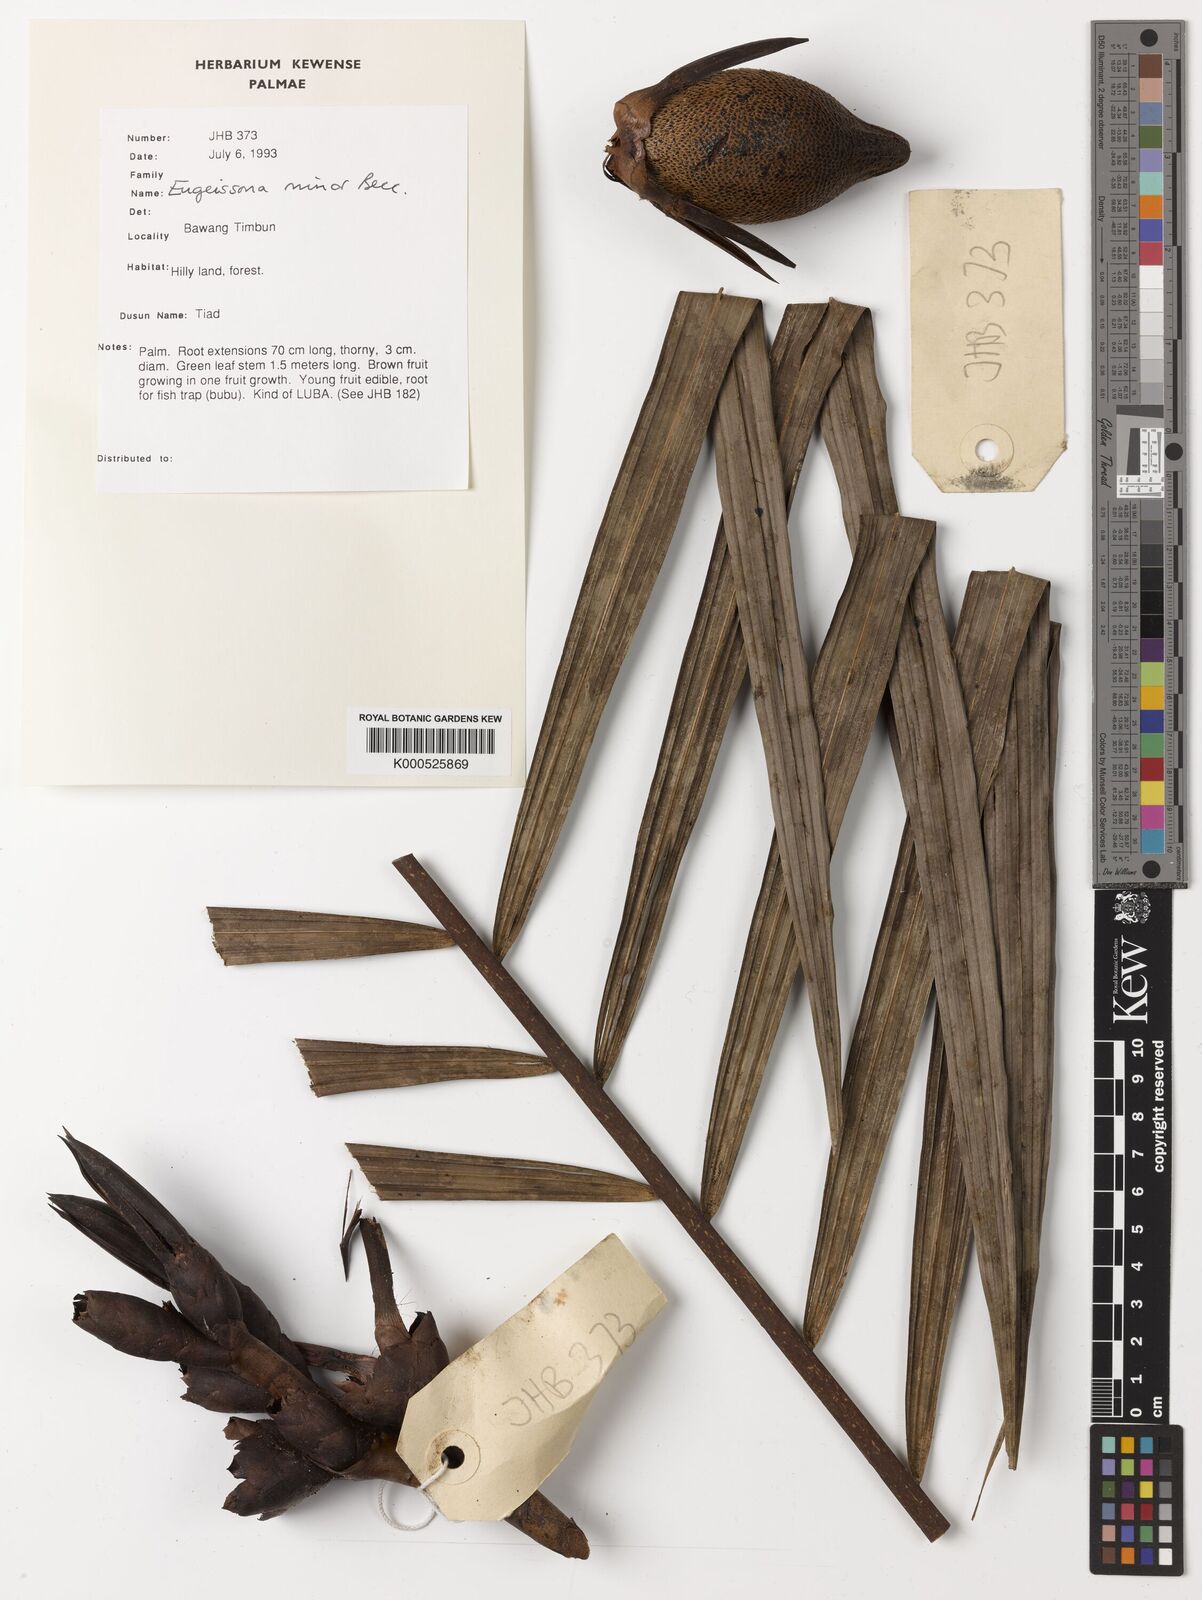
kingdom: Plantae
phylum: Tracheophyta
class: Liliopsida
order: Arecales
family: Arecaceae
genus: Eugeissona
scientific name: Eugeissona minor
